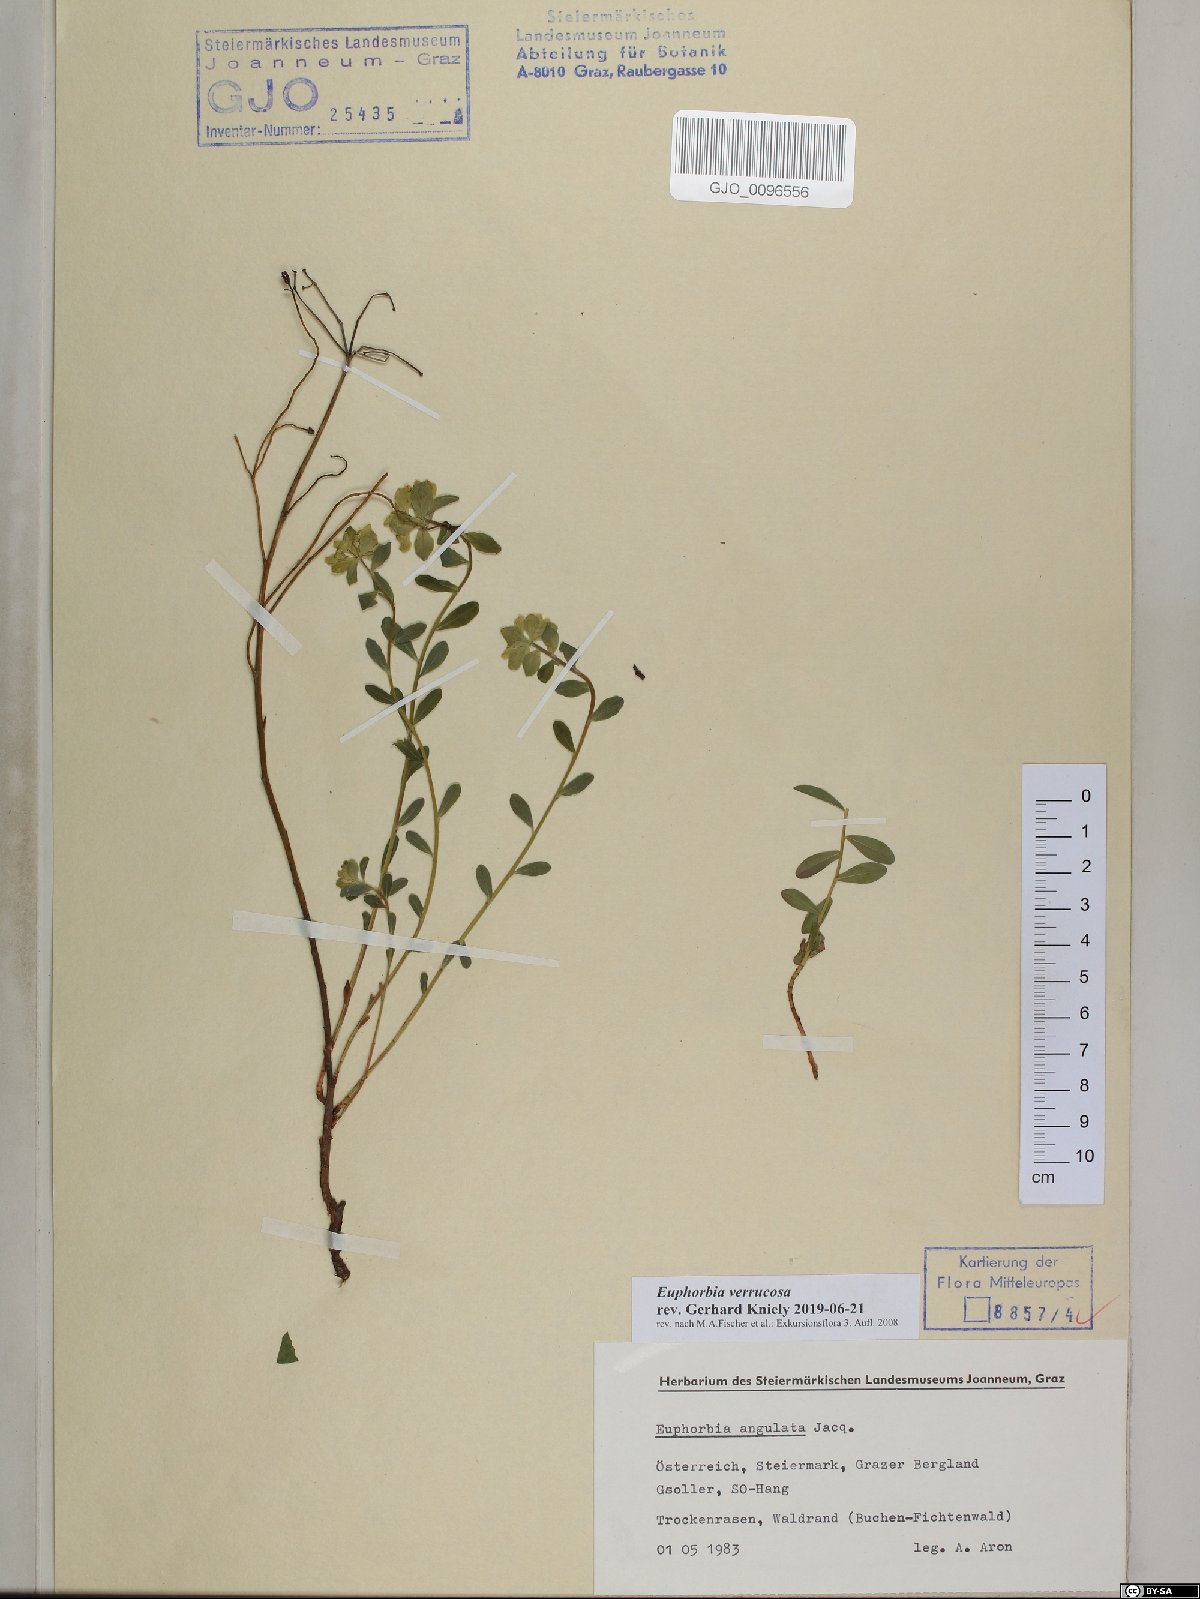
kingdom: Plantae
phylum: Tracheophyta
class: Magnoliopsida
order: Malpighiales
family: Euphorbiaceae
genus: Euphorbia
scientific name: Euphorbia verrucosa
